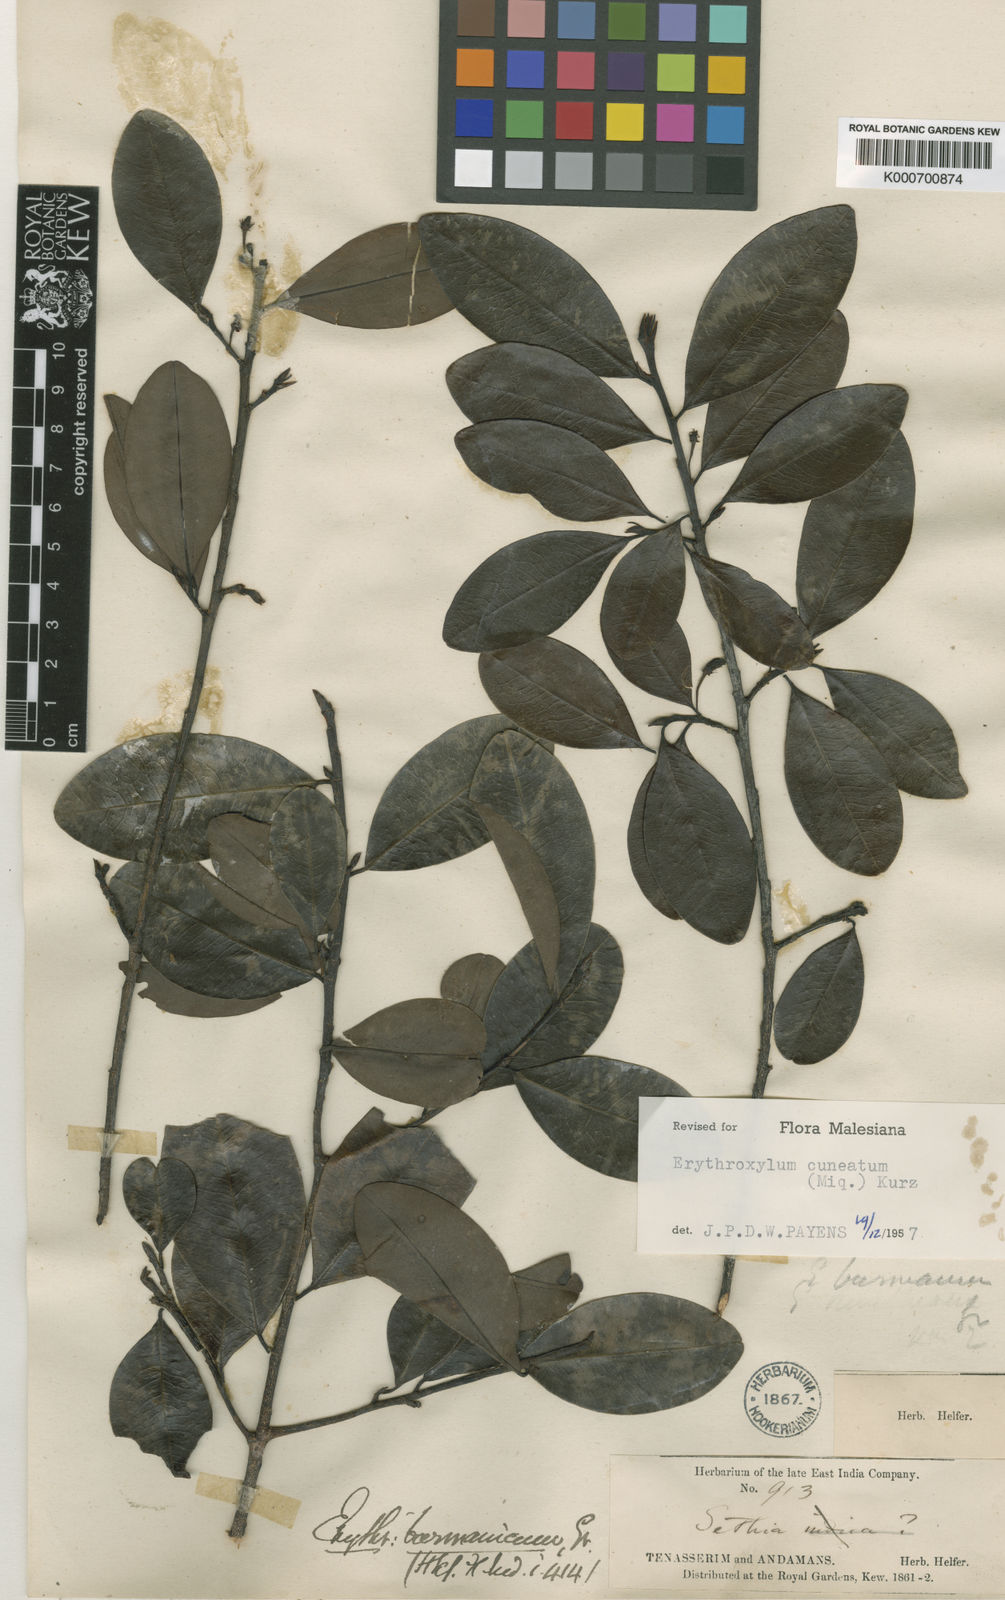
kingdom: Plantae
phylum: Tracheophyta
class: Magnoliopsida
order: Malpighiales
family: Erythroxylaceae
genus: Erythroxylum
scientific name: Erythroxylum cuneatum
